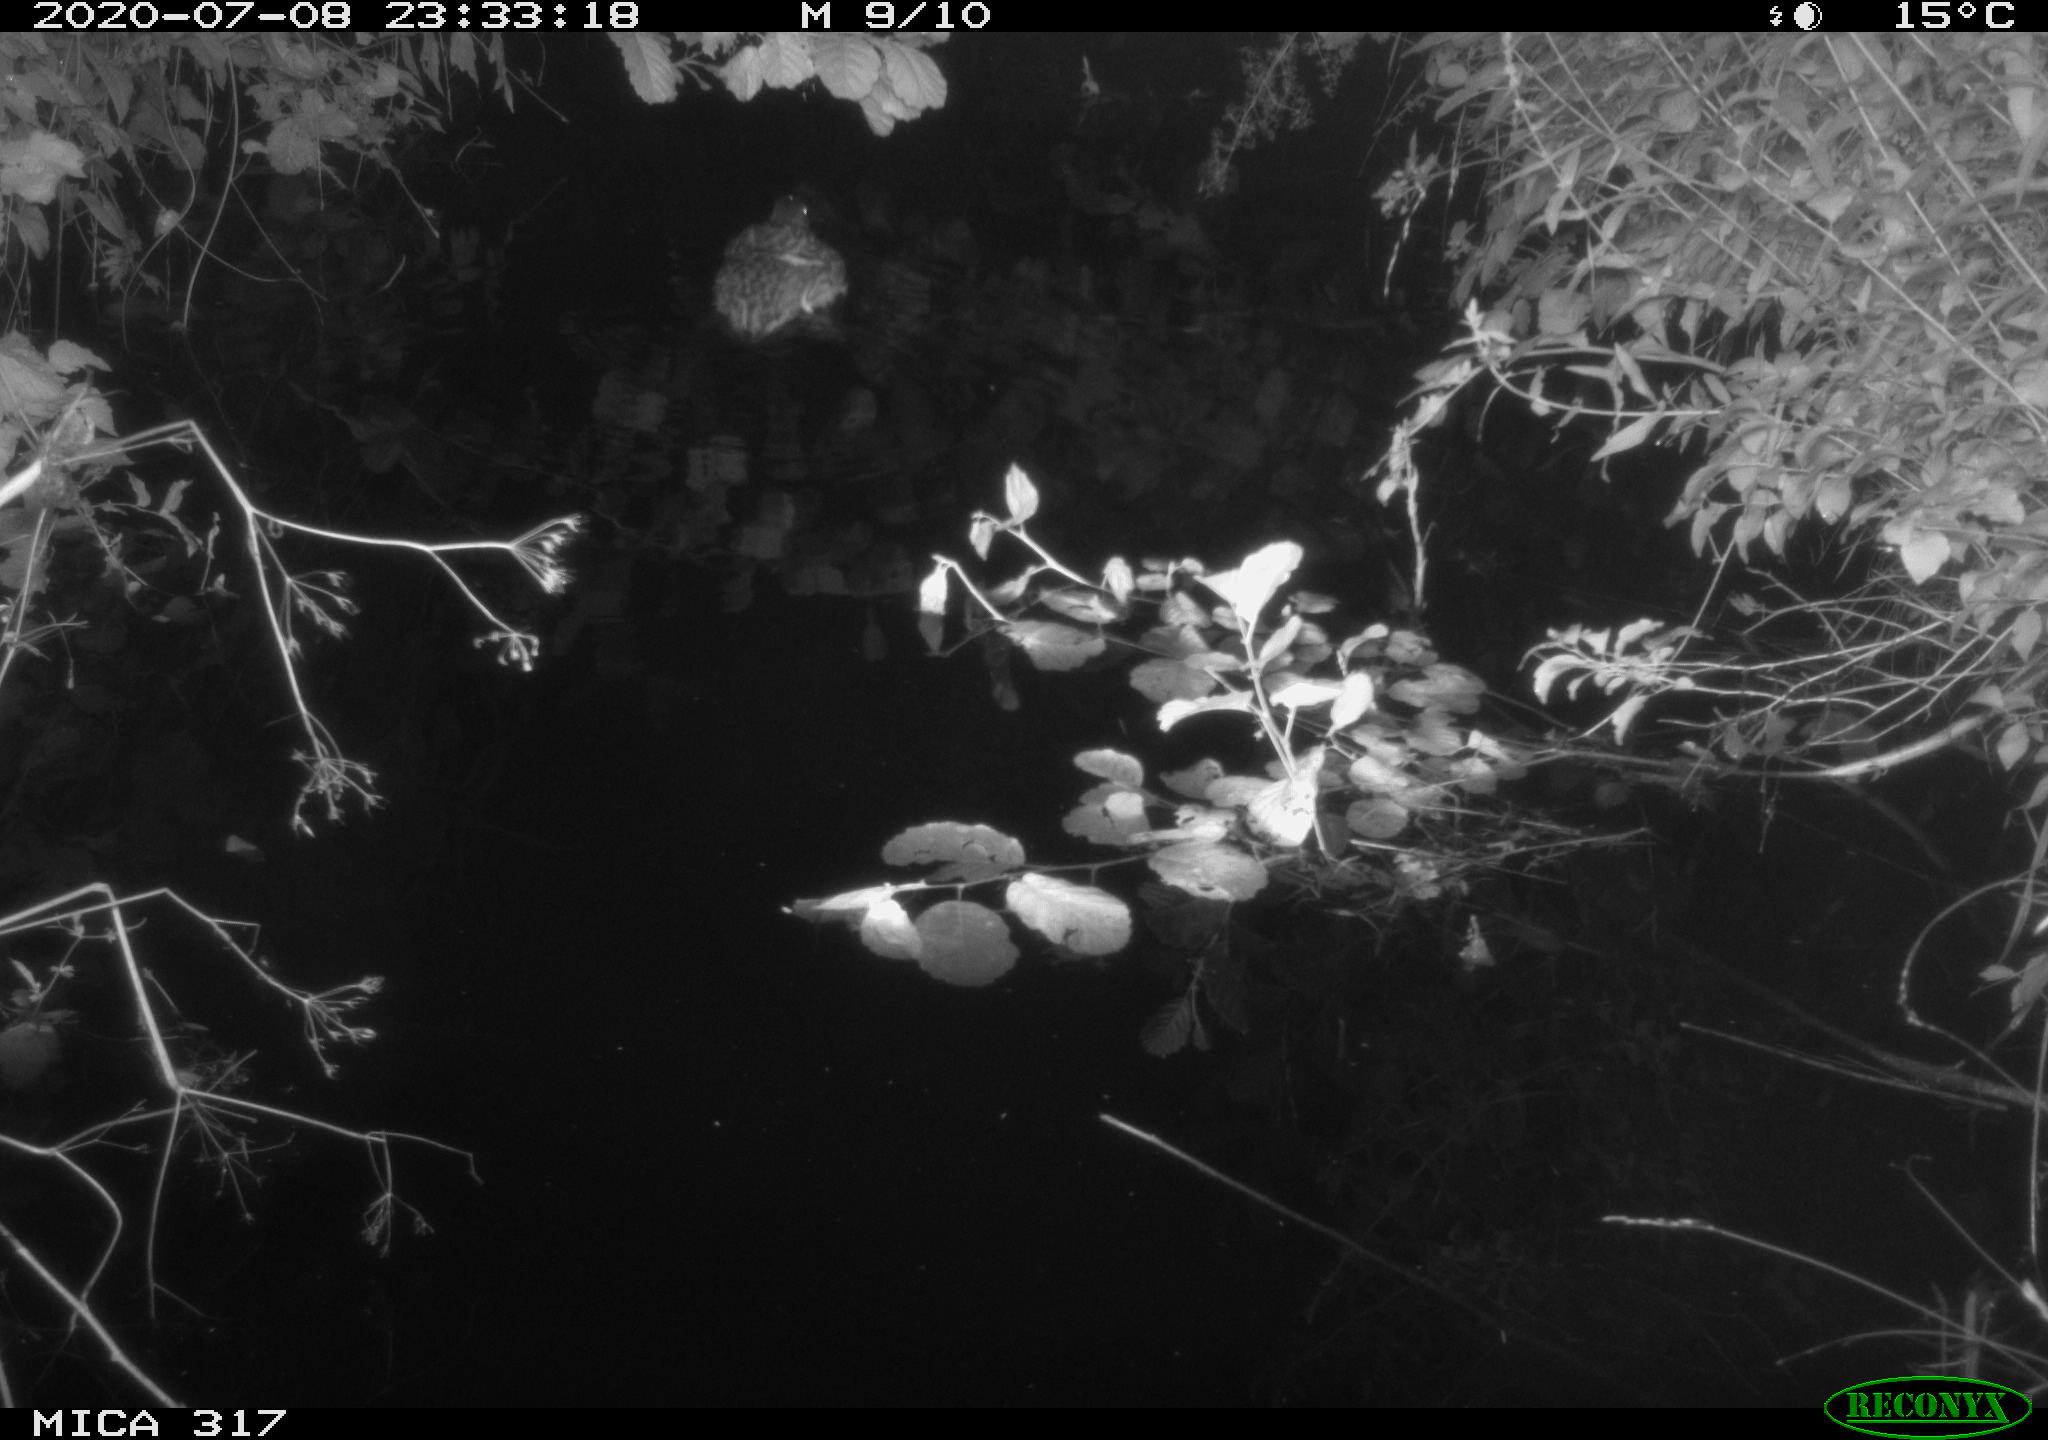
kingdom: Animalia
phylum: Chordata
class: Aves
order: Anseriformes
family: Anatidae
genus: Anas
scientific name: Anas platyrhynchos
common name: Mallard
